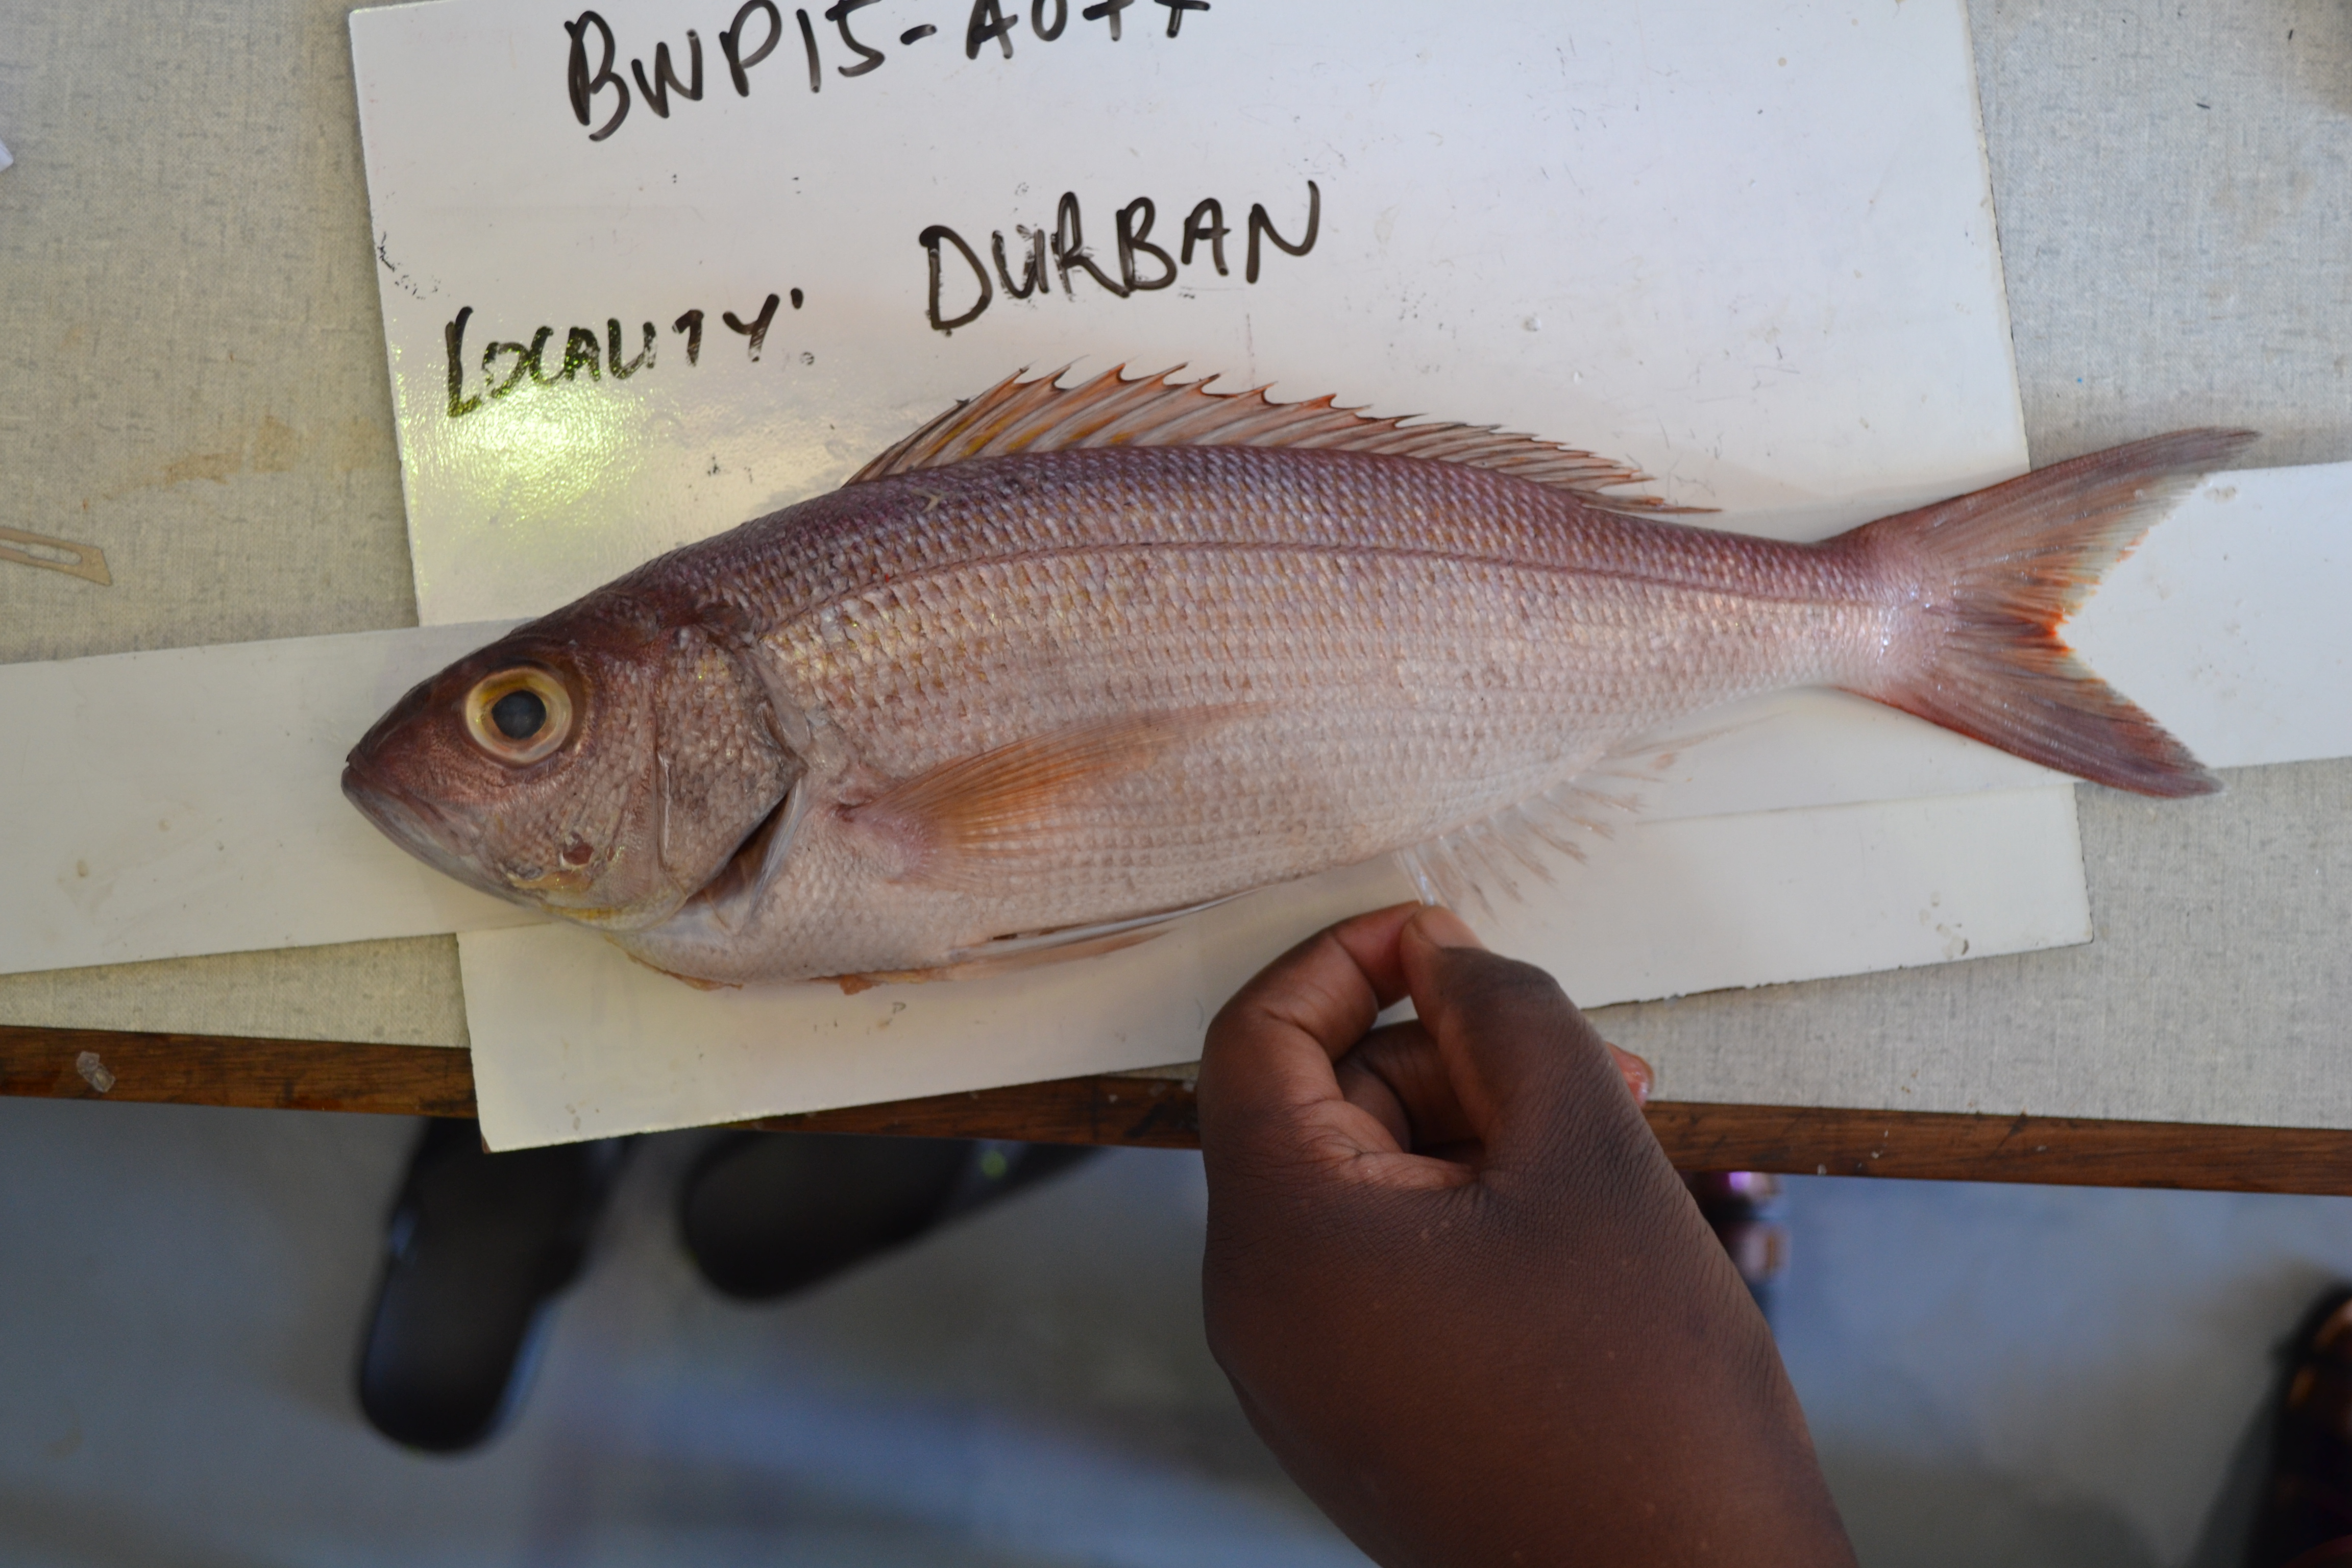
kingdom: Animalia
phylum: Chordata
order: Perciformes
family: Lutjanidae
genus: Pristipomoides
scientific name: Pristipomoides filamentosus
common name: Bluespot jobfish
